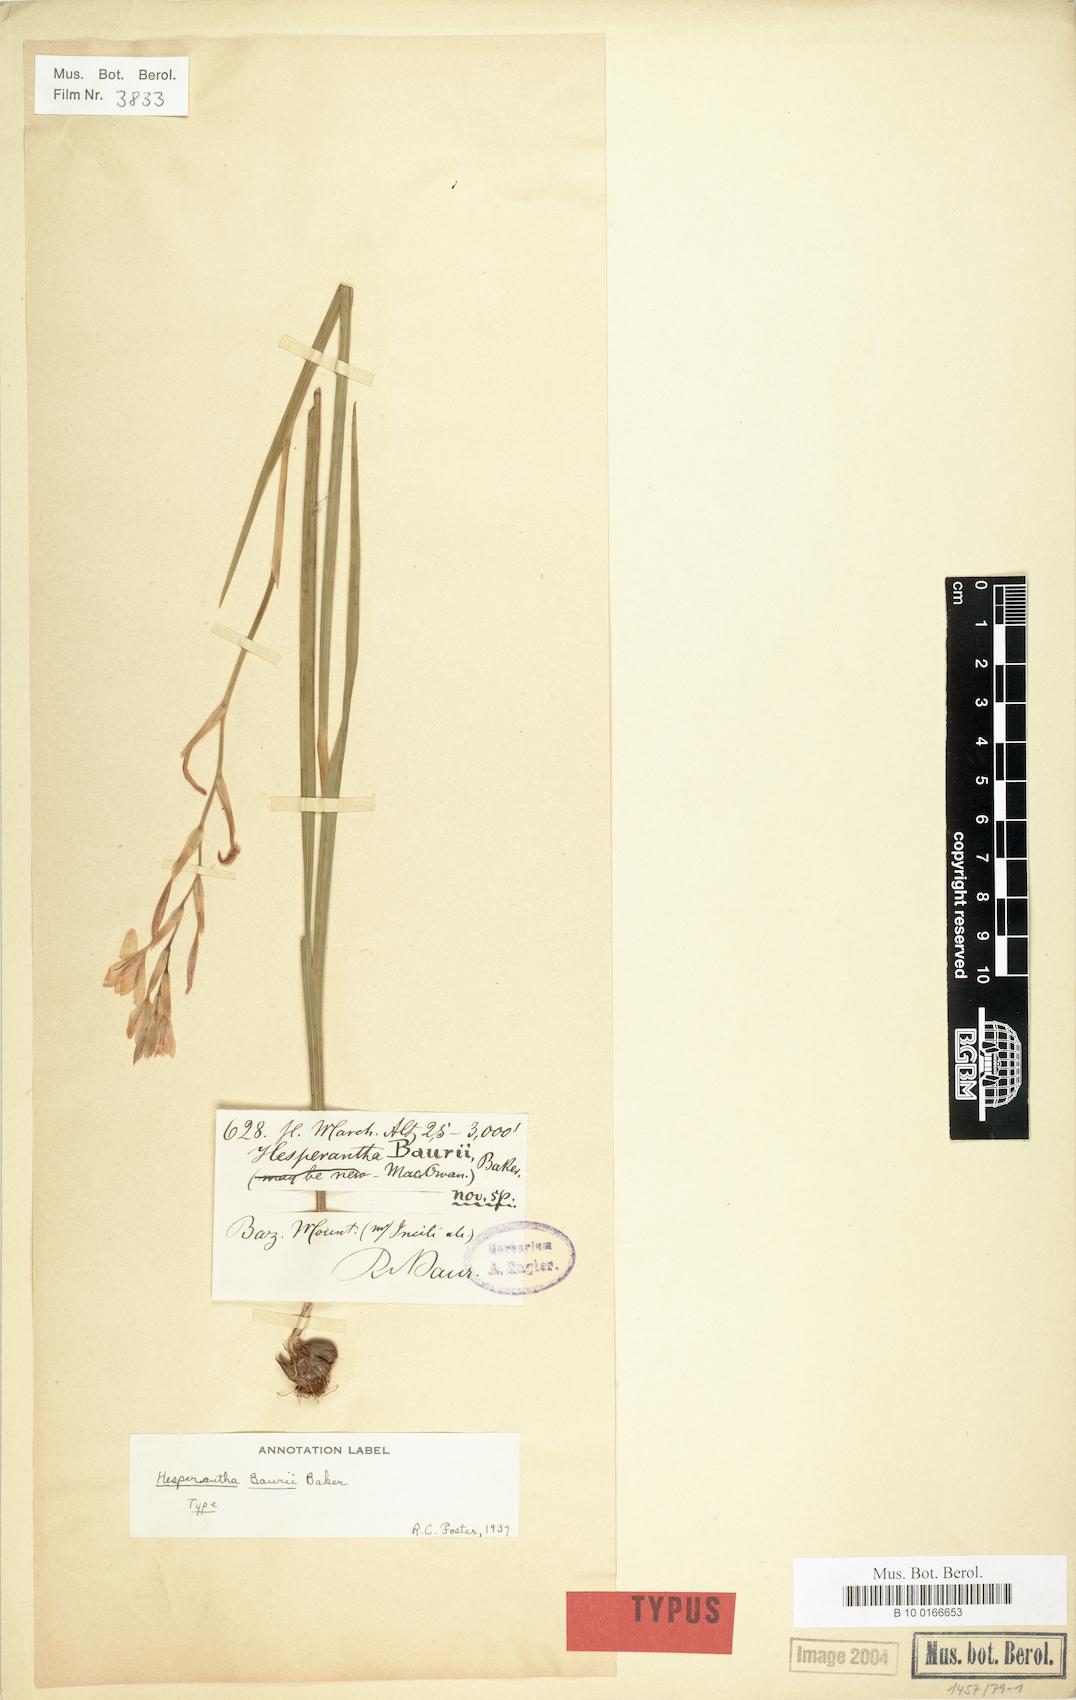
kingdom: Plantae
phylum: Tracheophyta
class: Liliopsida
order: Asparagales
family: Iridaceae
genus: Hesperantha
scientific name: Hesperantha baurii
